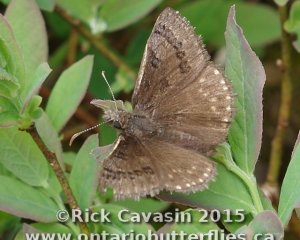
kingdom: Animalia
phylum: Arthropoda
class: Insecta
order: Lepidoptera
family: Hesperiidae
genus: Erynnis
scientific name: Erynnis brizo
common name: Sleepy Duskywing
